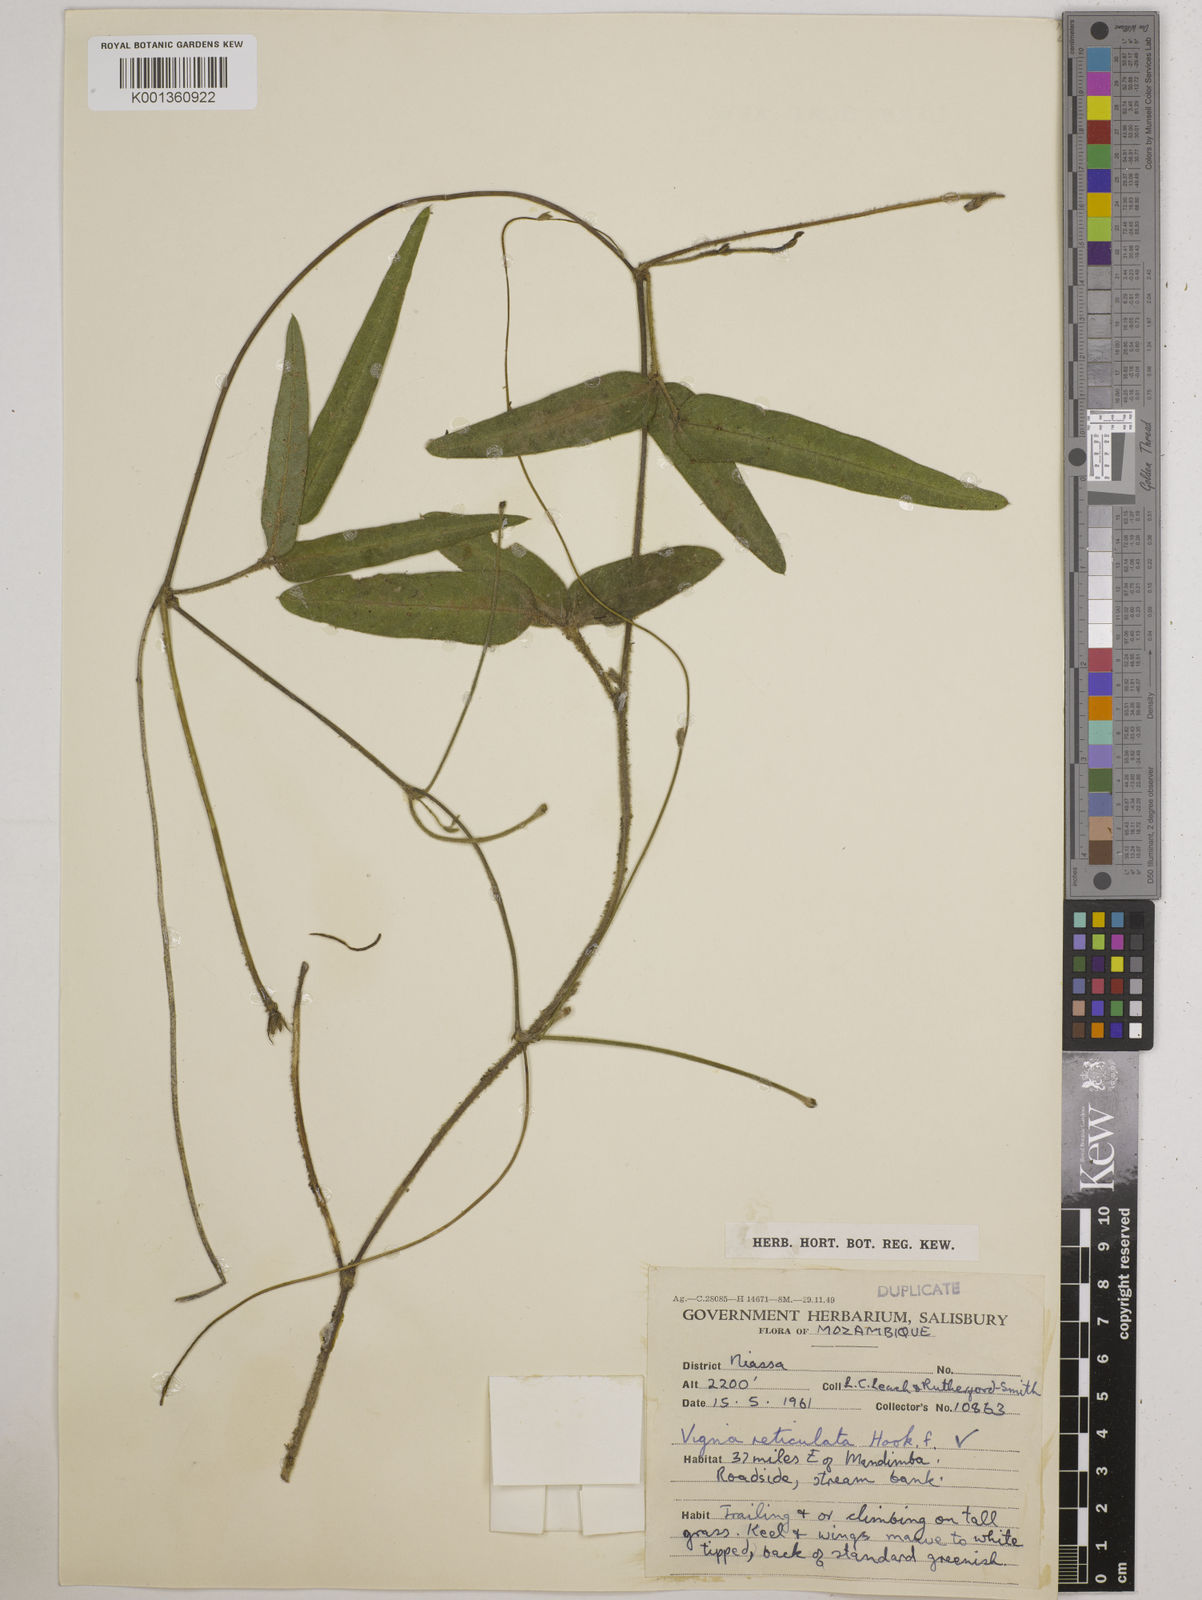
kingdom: Plantae
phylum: Tracheophyta
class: Magnoliopsida
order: Fabales
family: Fabaceae
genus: Vigna
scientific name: Vigna reticulata
